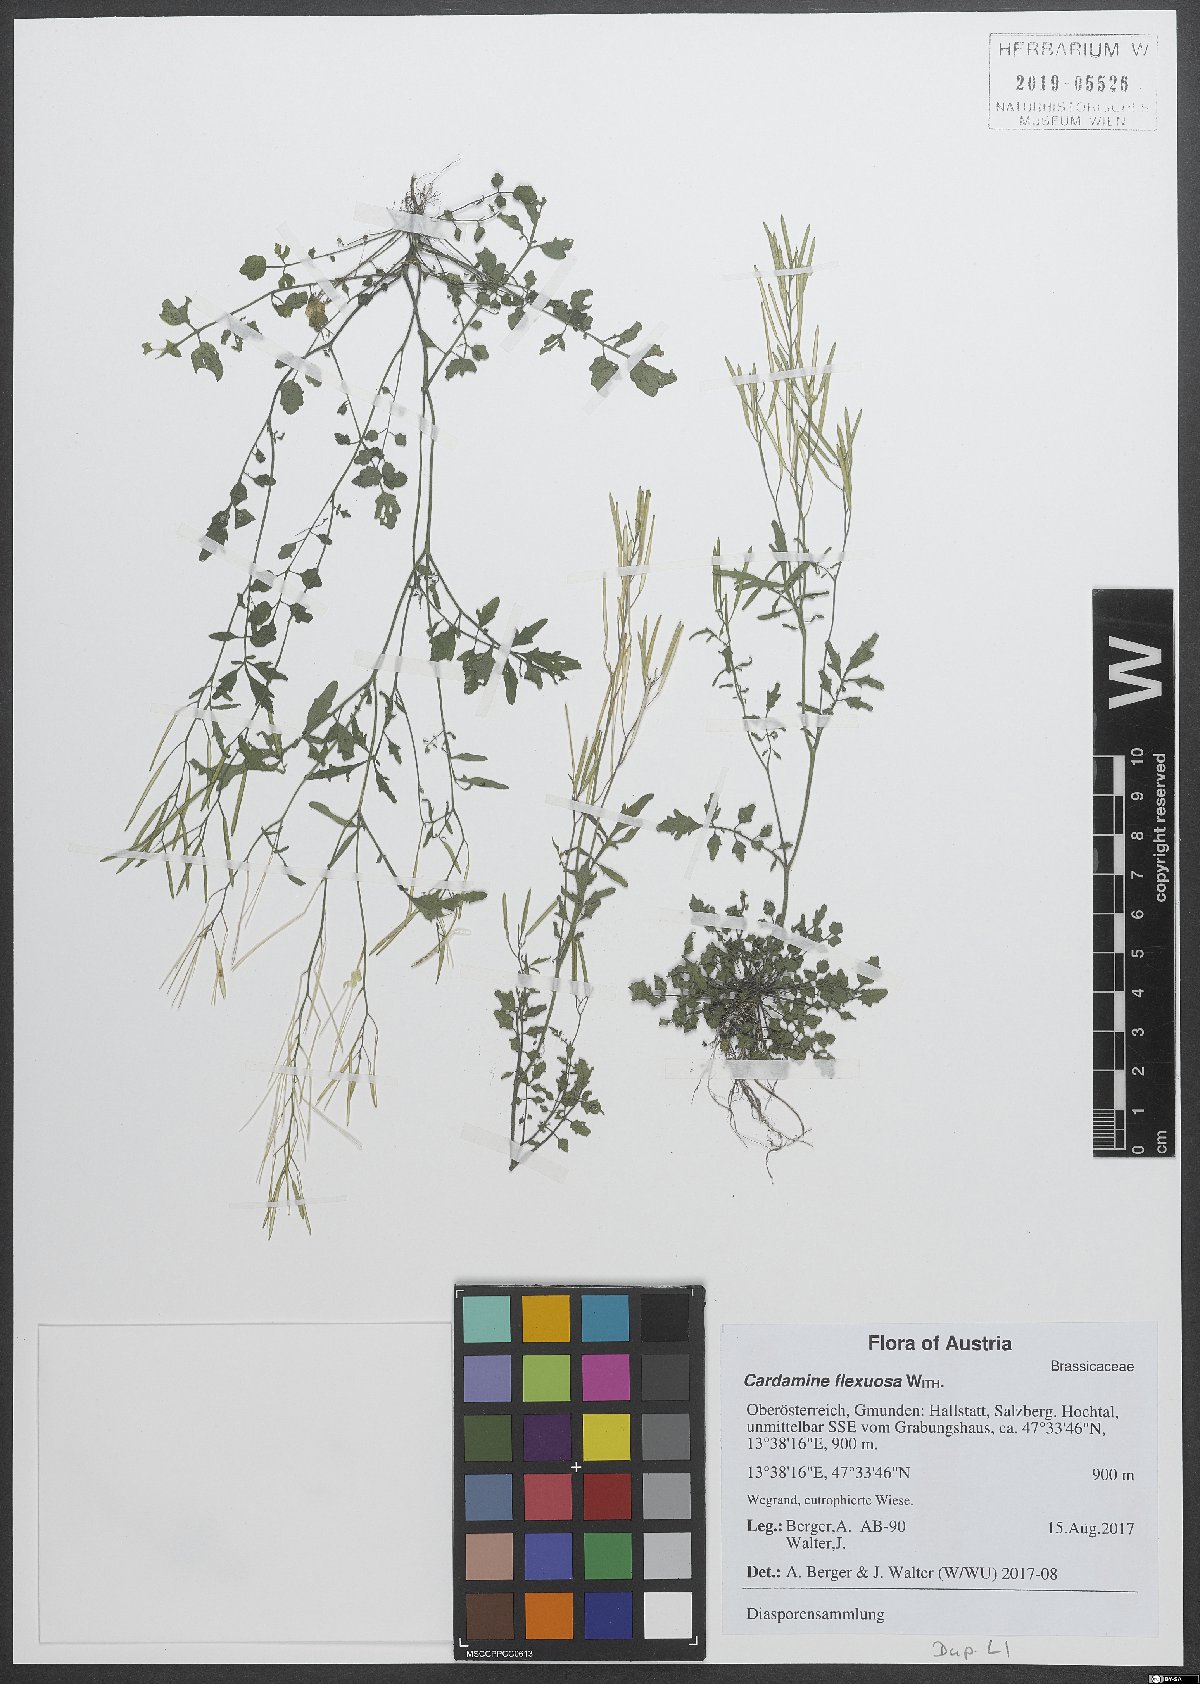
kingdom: Plantae
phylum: Tracheophyta
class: Magnoliopsida
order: Brassicales
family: Brassicaceae
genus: Cardamine
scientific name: Cardamine flexuosa
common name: Woodland bittercress
